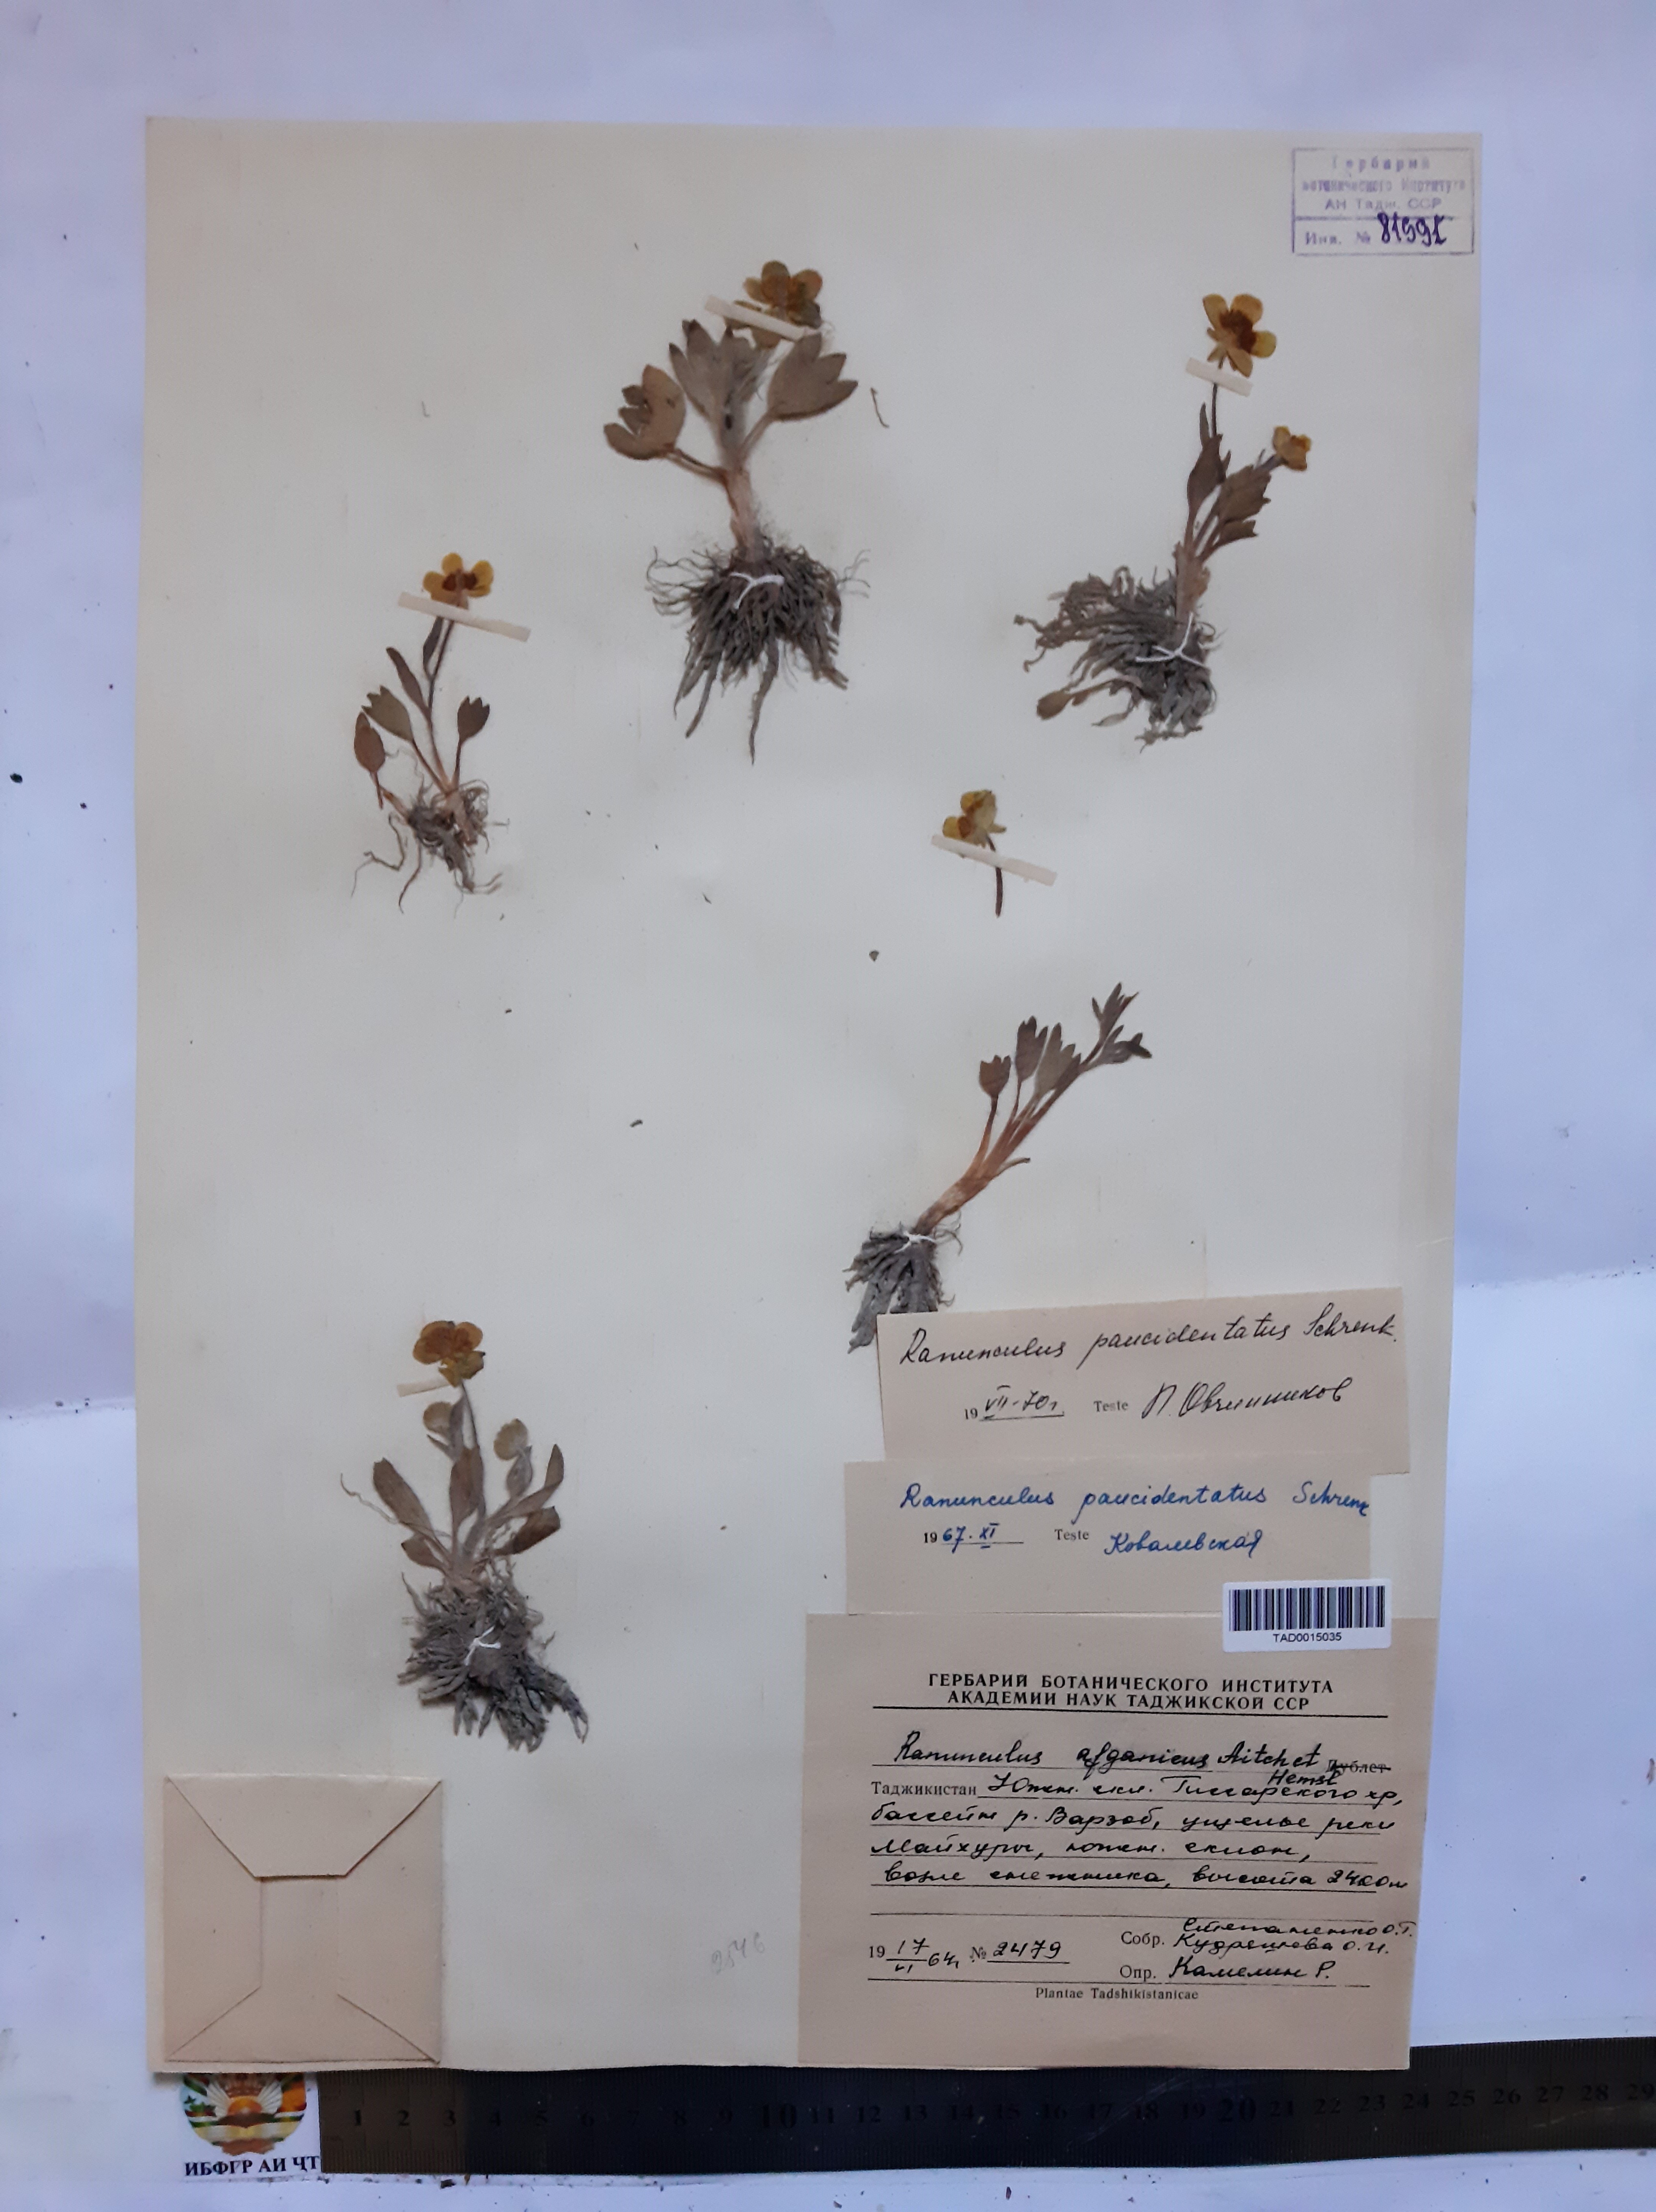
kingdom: Plantae
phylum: Tracheophyta
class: Magnoliopsida
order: Ranunculales
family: Ranunculaceae
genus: Ranunculus
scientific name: Ranunculus
